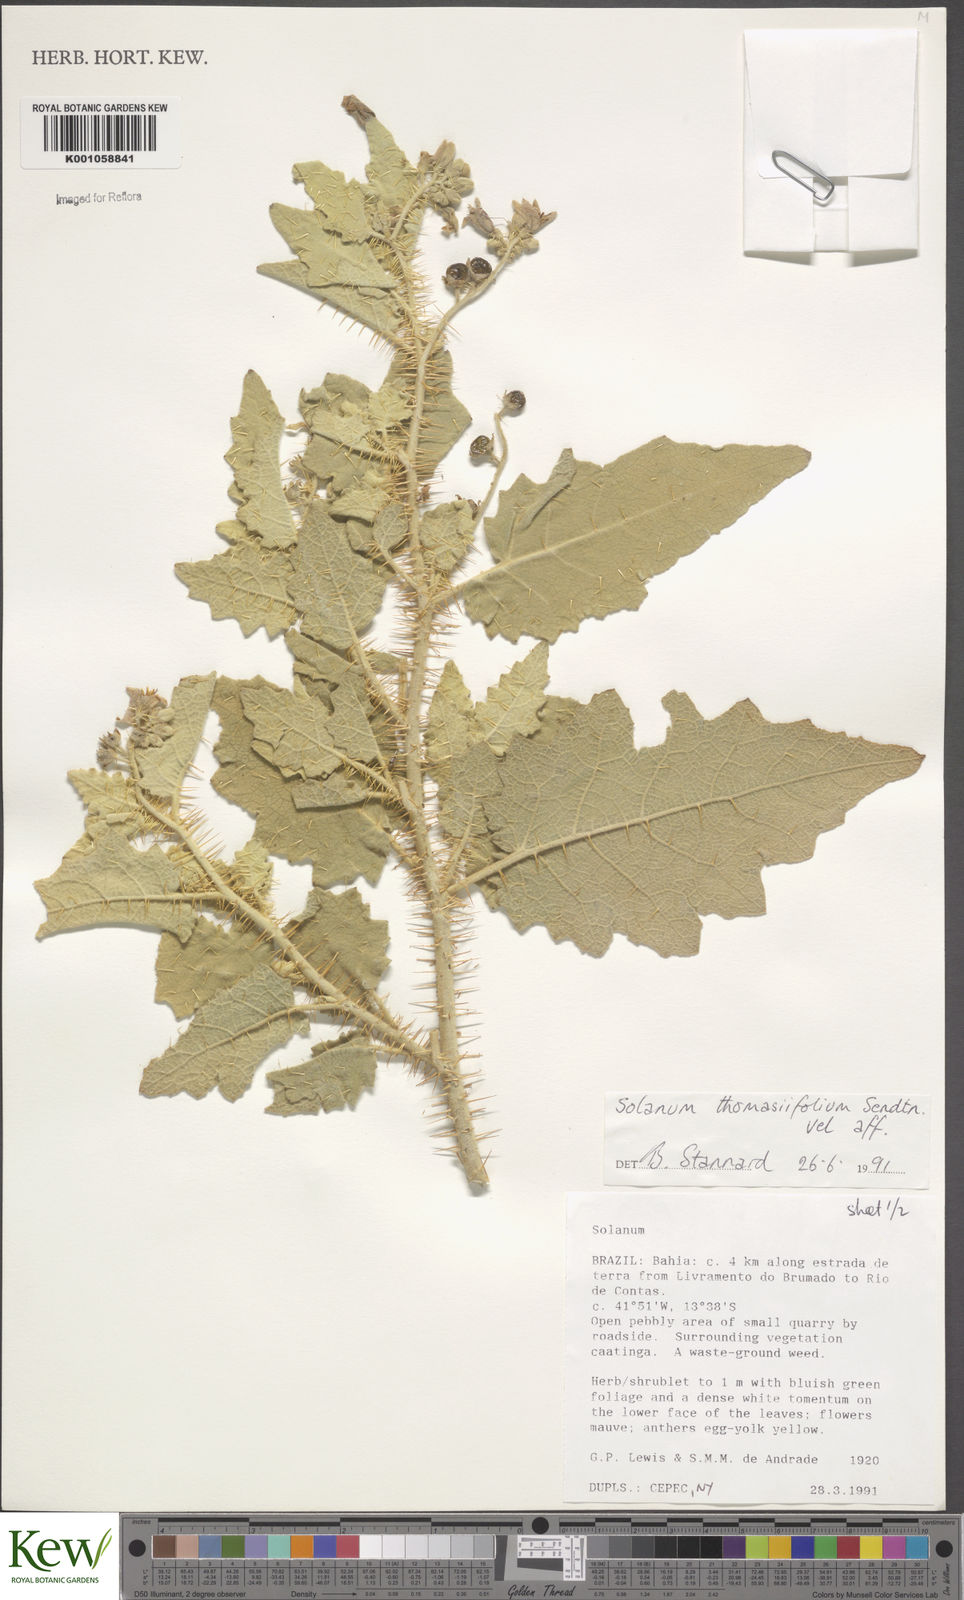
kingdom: Plantae
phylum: Tracheophyta
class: Magnoliopsida
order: Solanales
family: Solanaceae
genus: Solanum
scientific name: Solanum thomasiifolium
